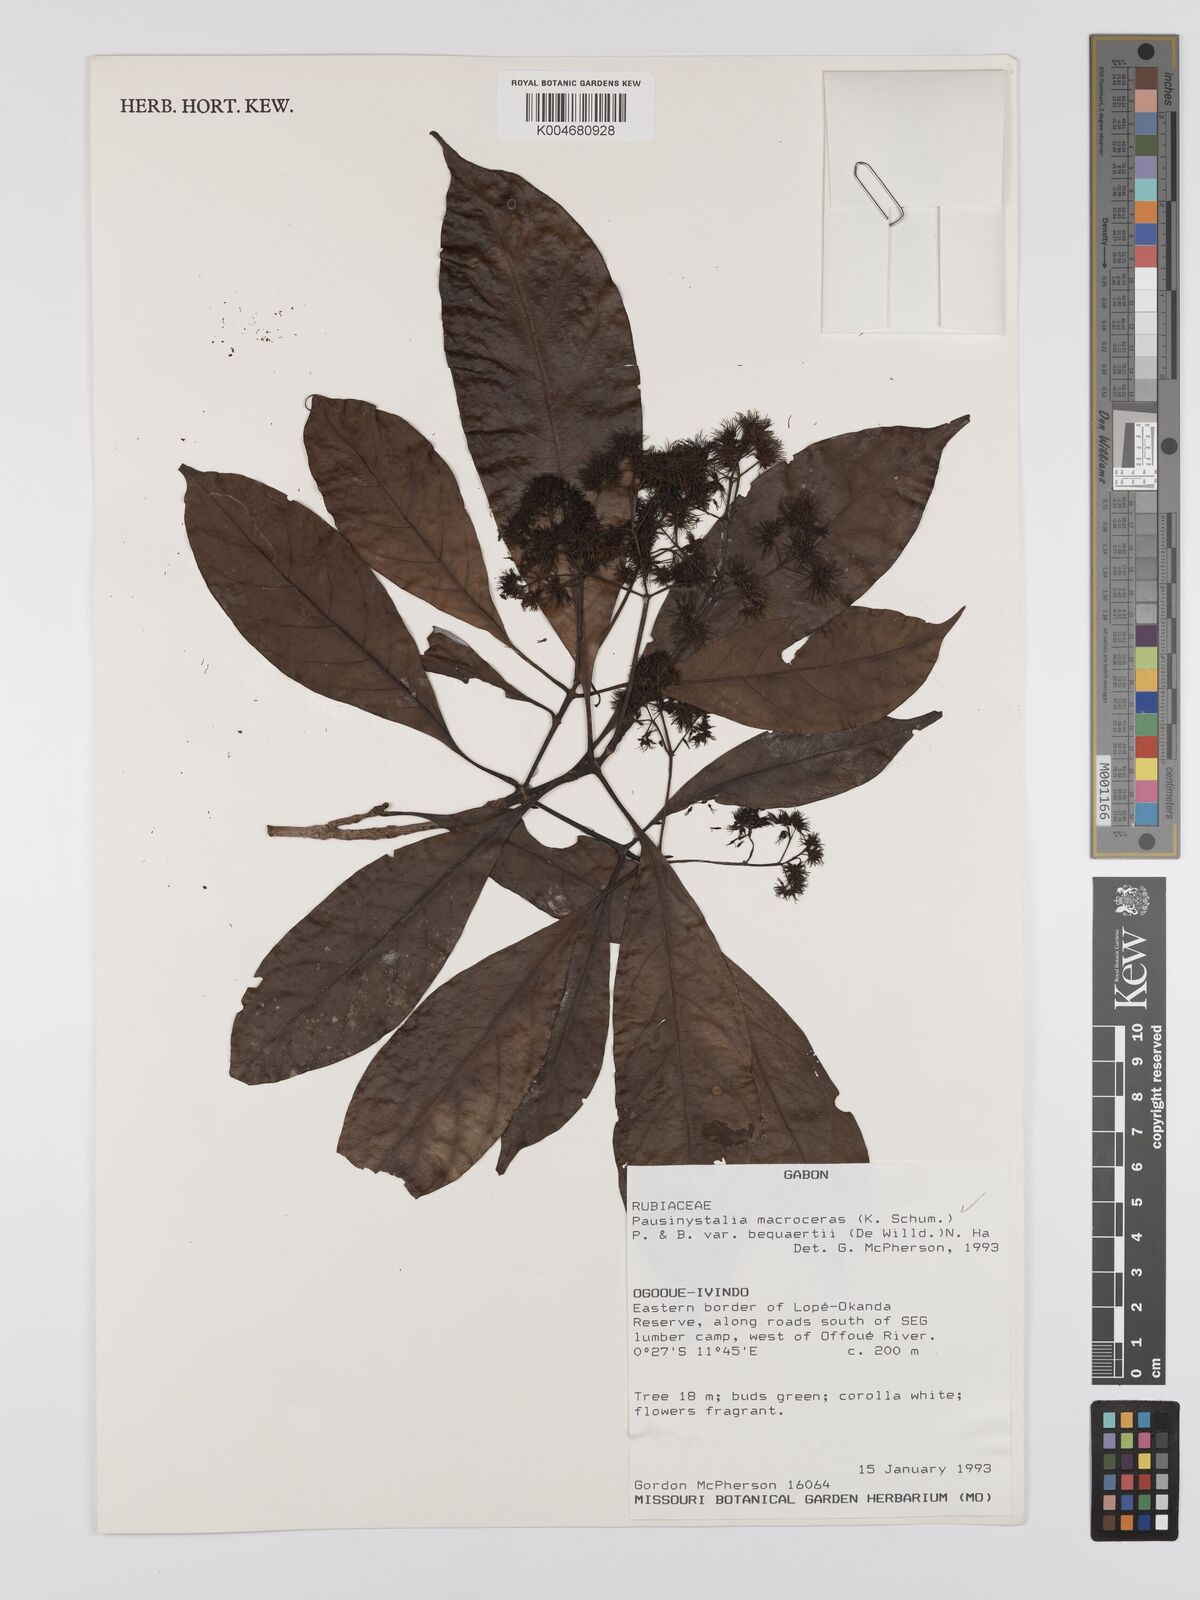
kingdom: Plantae
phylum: Tracheophyta
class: Magnoliopsida
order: Gentianales
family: Rubiaceae
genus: Corynanthe
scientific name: Corynanthe macroceras
